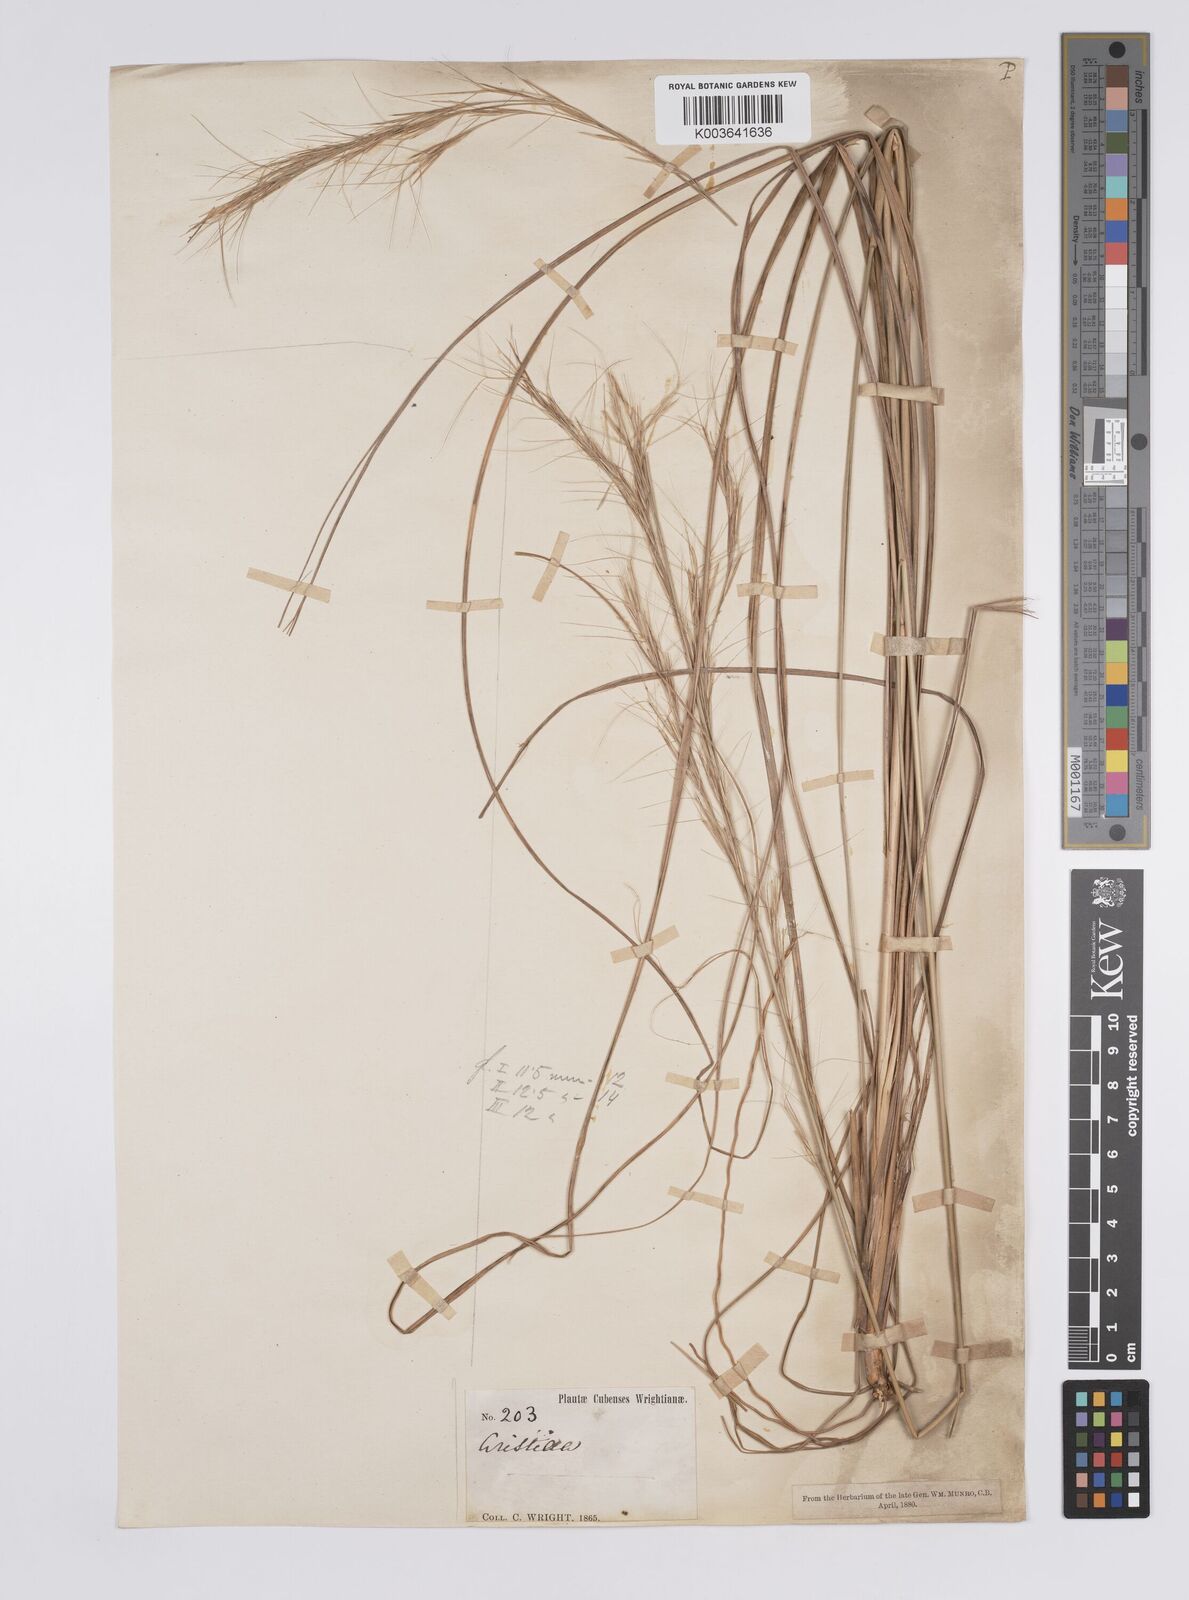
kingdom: Plantae
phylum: Tracheophyta
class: Liliopsida
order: Poales
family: Poaceae
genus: Aristida
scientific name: Aristida erecta
